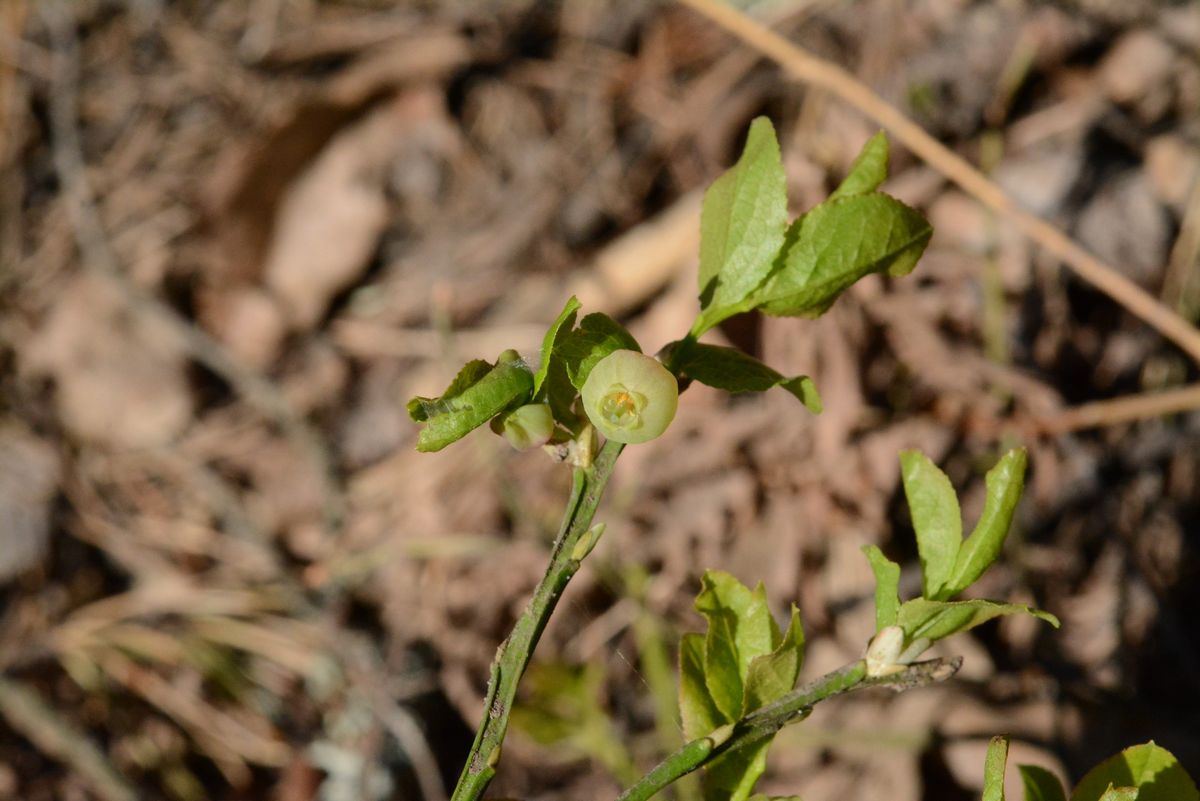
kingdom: Plantae
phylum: Tracheophyta
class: Magnoliopsida
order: Ericales
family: Ericaceae
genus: Vaccinium
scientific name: Vaccinium myrtillus
